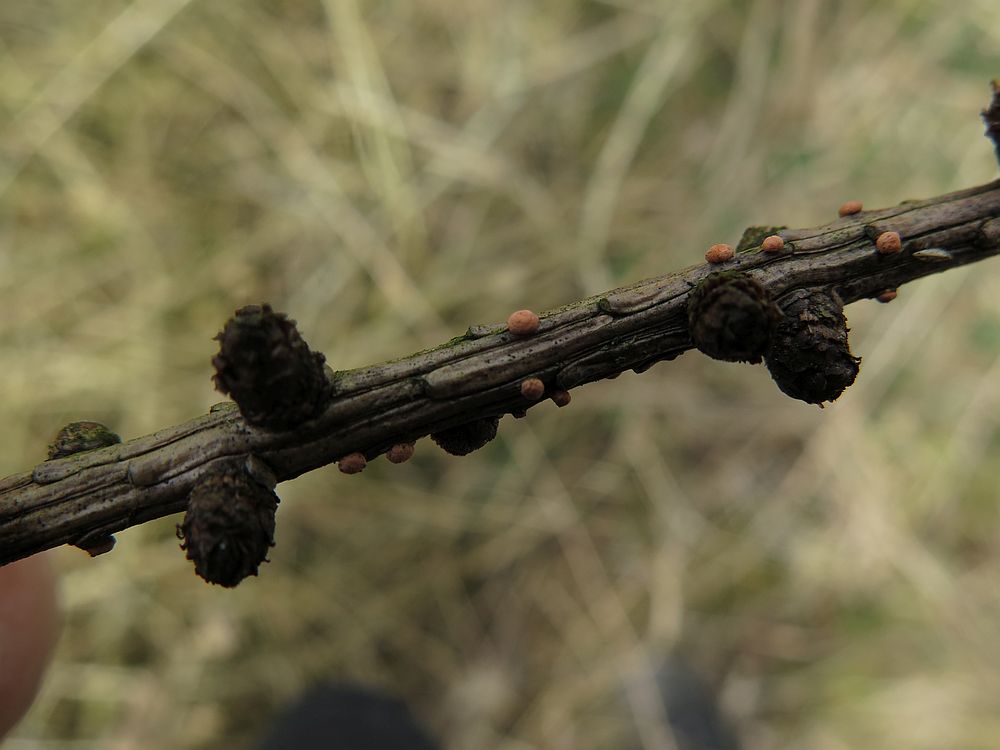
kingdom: Fungi
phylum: Ascomycota
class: Sordariomycetes
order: Hypocreales
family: Nectriaceae
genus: Nectria
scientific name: Nectria cinnabarina
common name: almindelig cinnobersvamp
